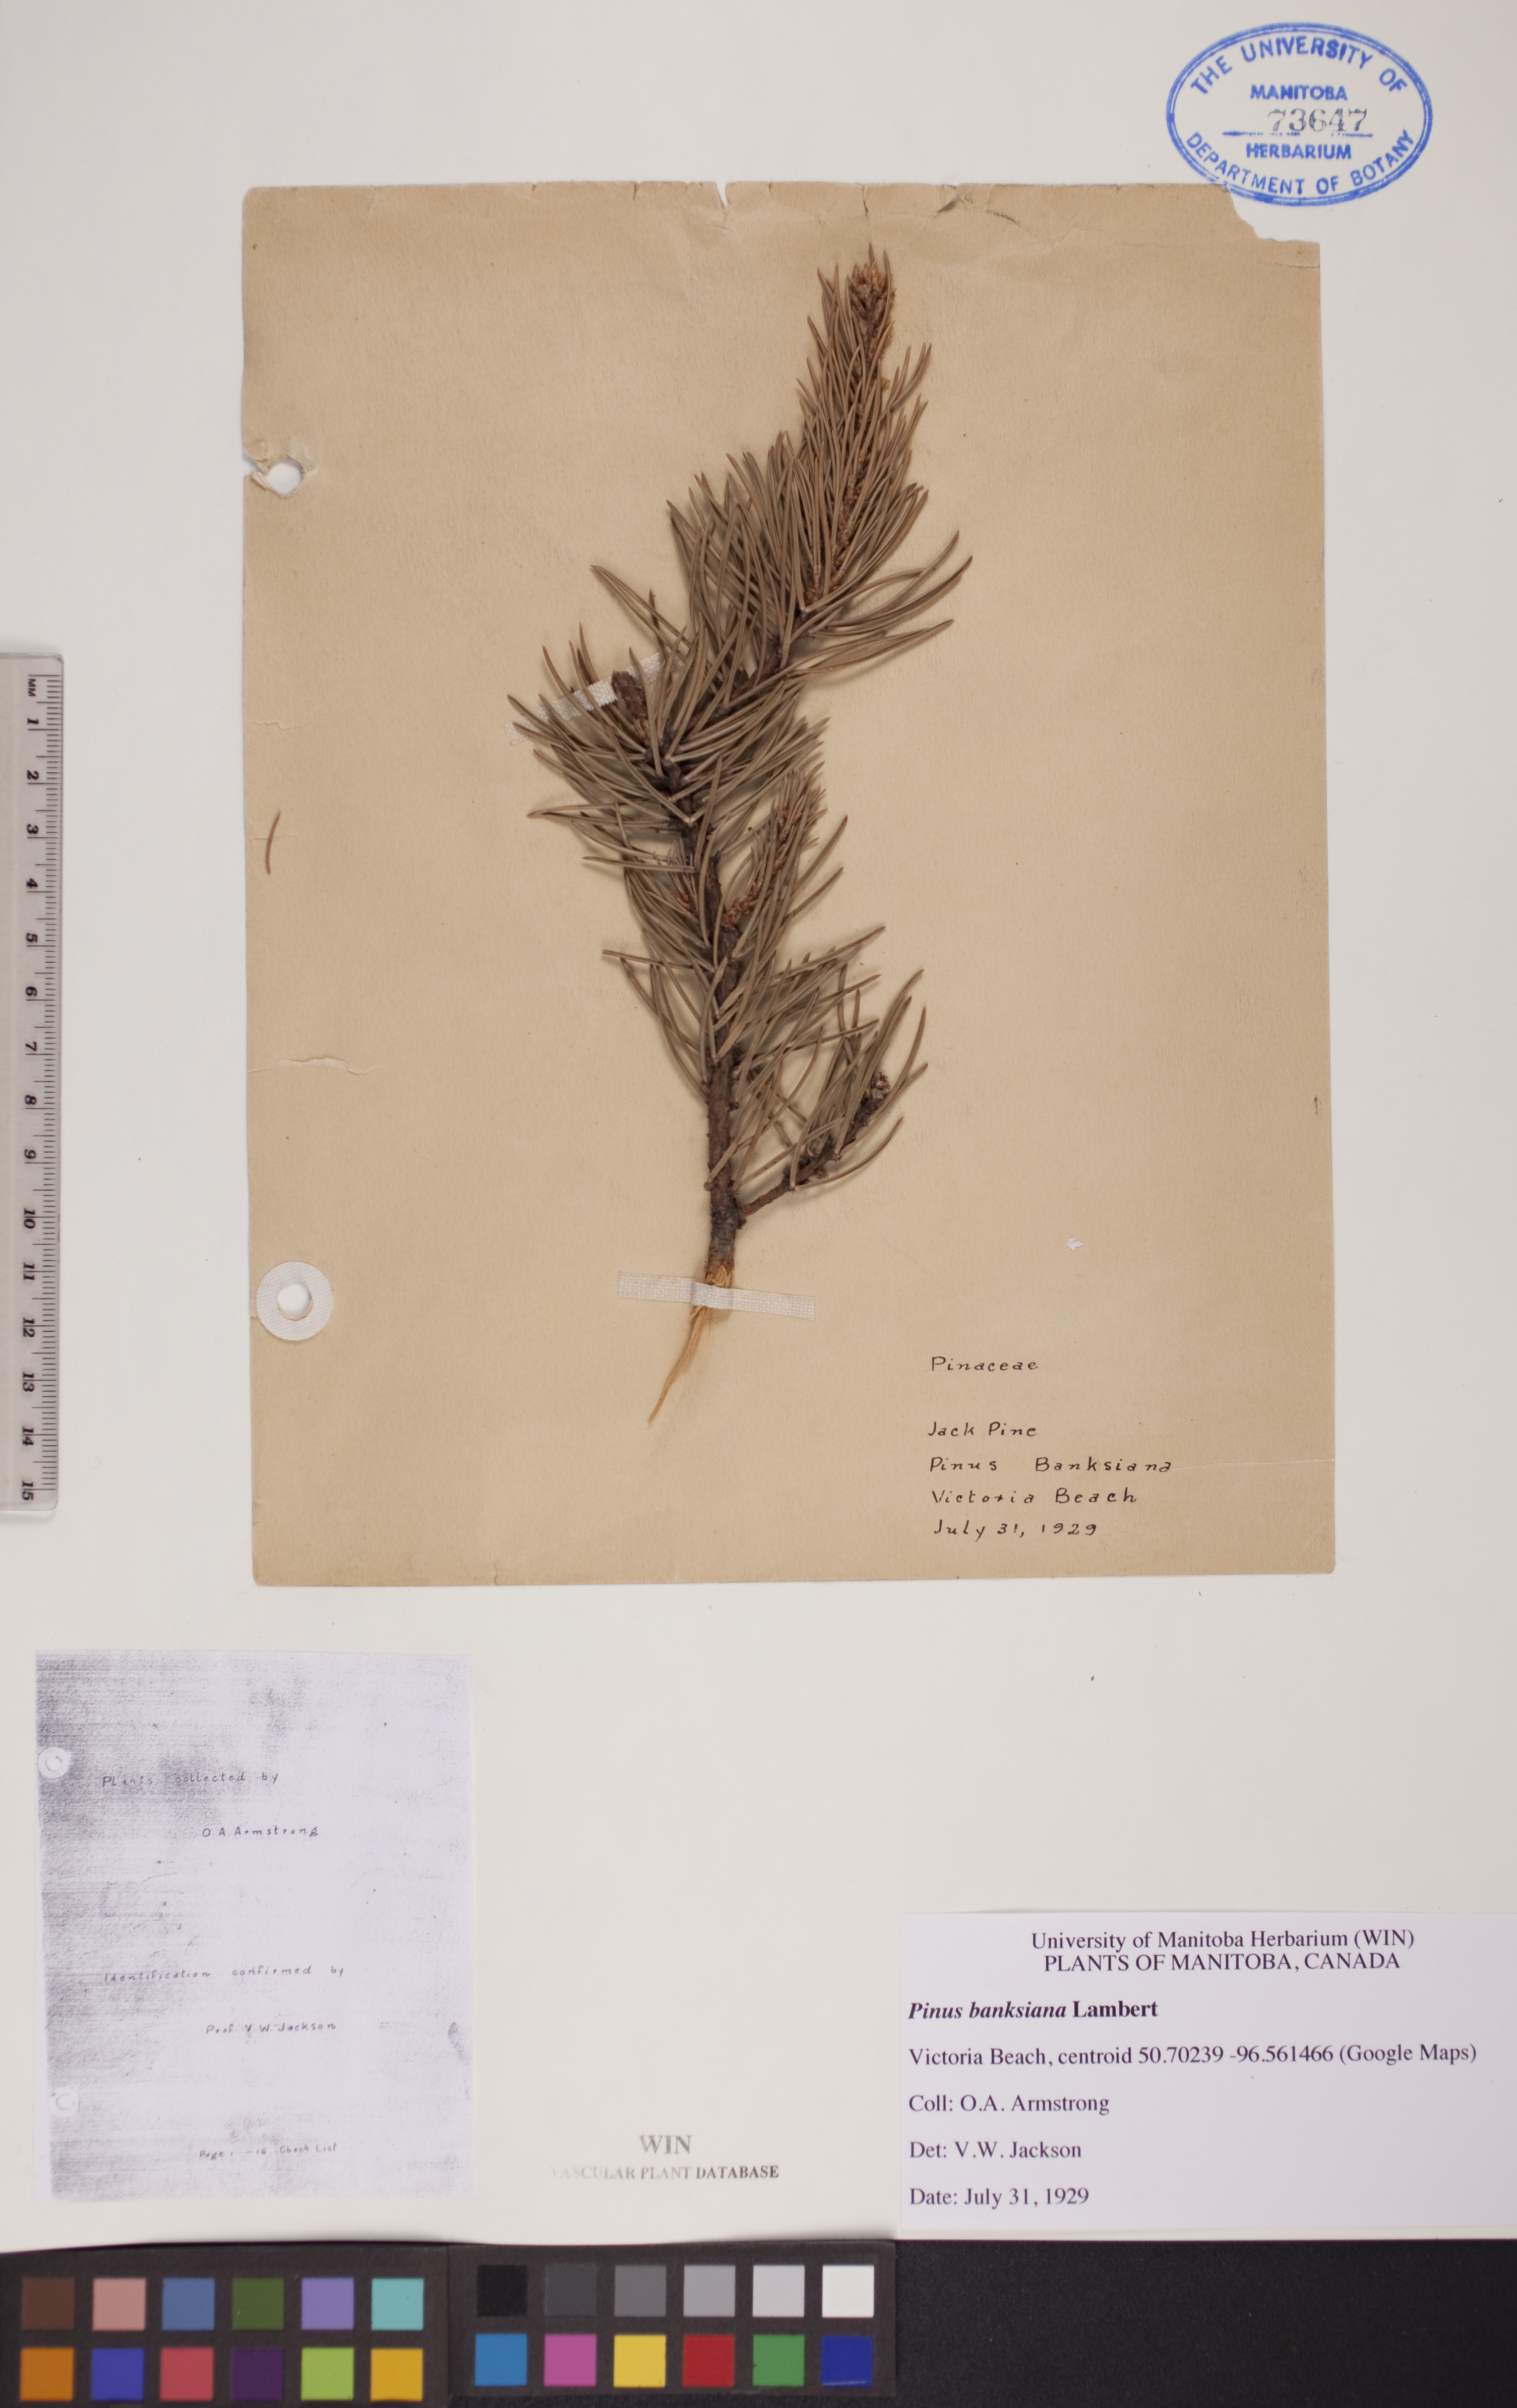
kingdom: Plantae
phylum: Tracheophyta
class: Pinopsida
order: Pinales
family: Pinaceae
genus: Pinus
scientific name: Pinus banksiana
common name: Jack pine
